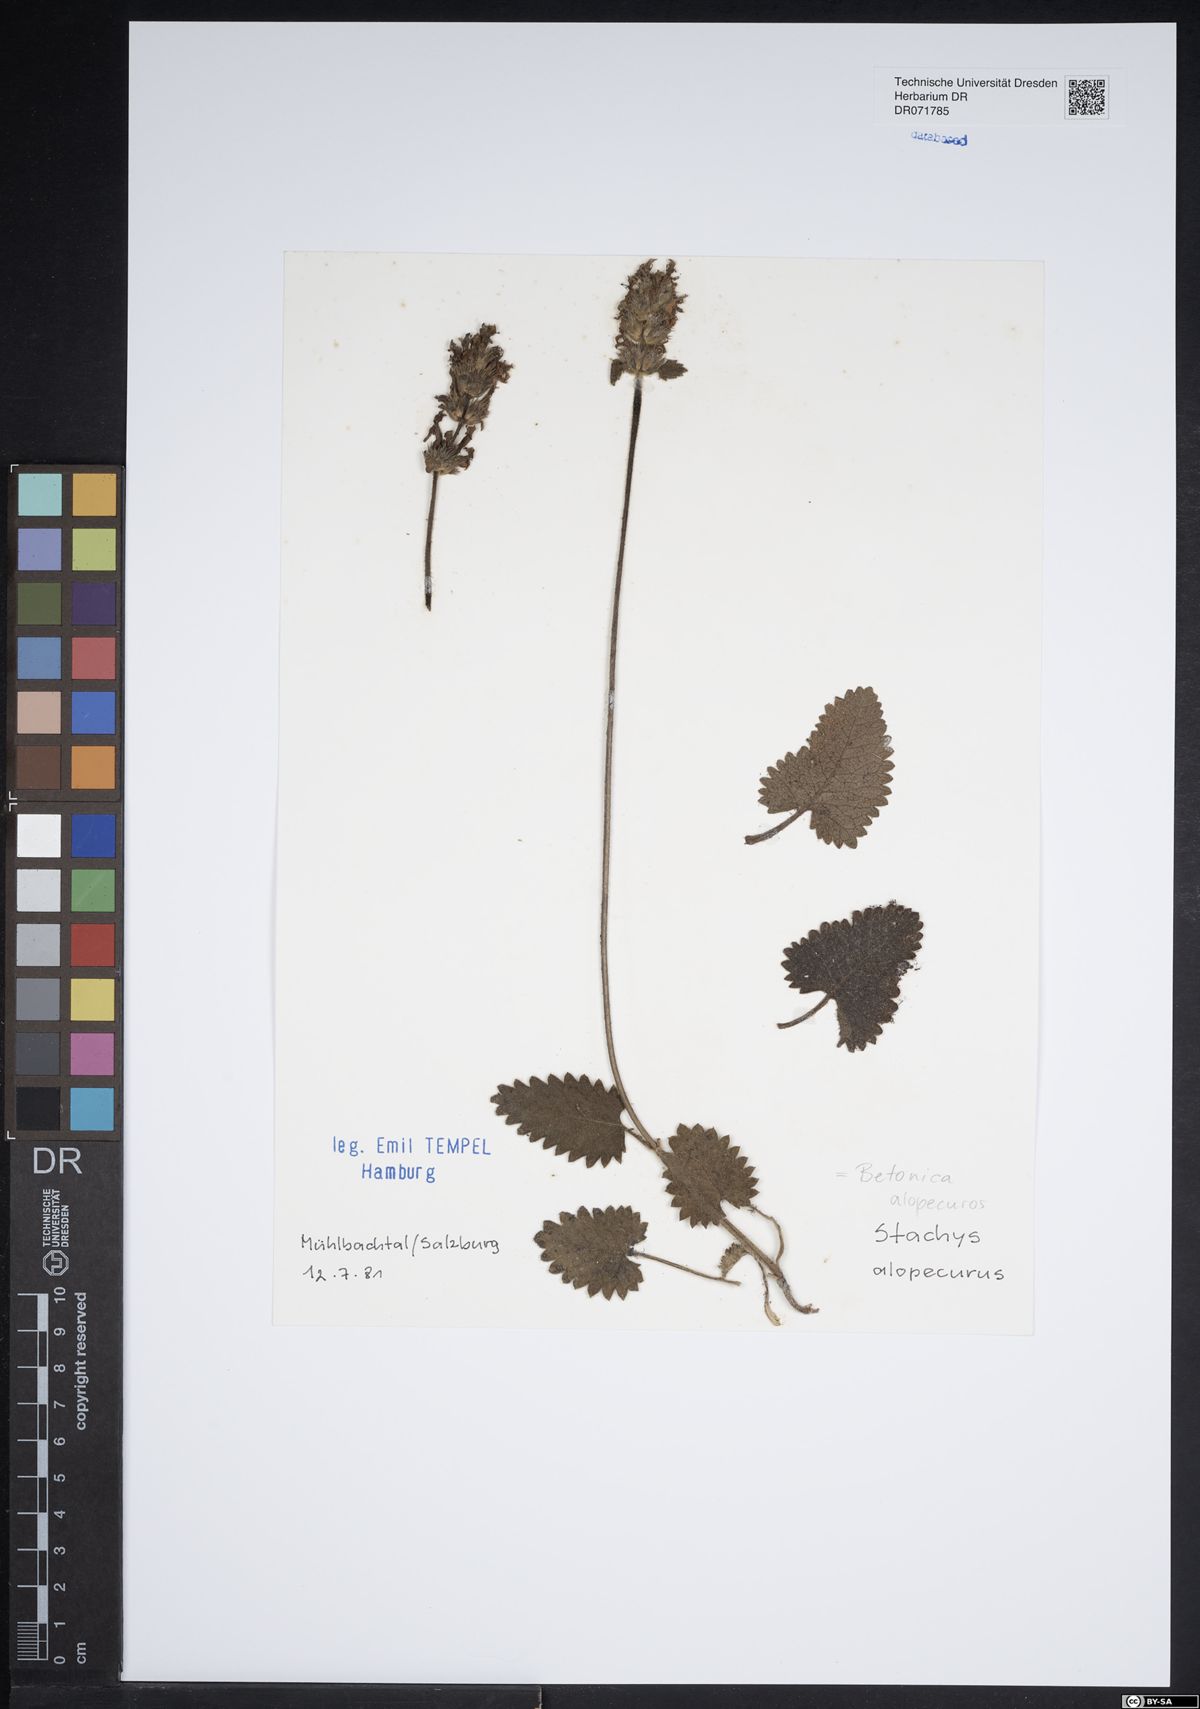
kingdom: Plantae
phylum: Tracheophyta
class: Magnoliopsida
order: Lamiales
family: Lamiaceae
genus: Betonica
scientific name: Betonica alopecuros
